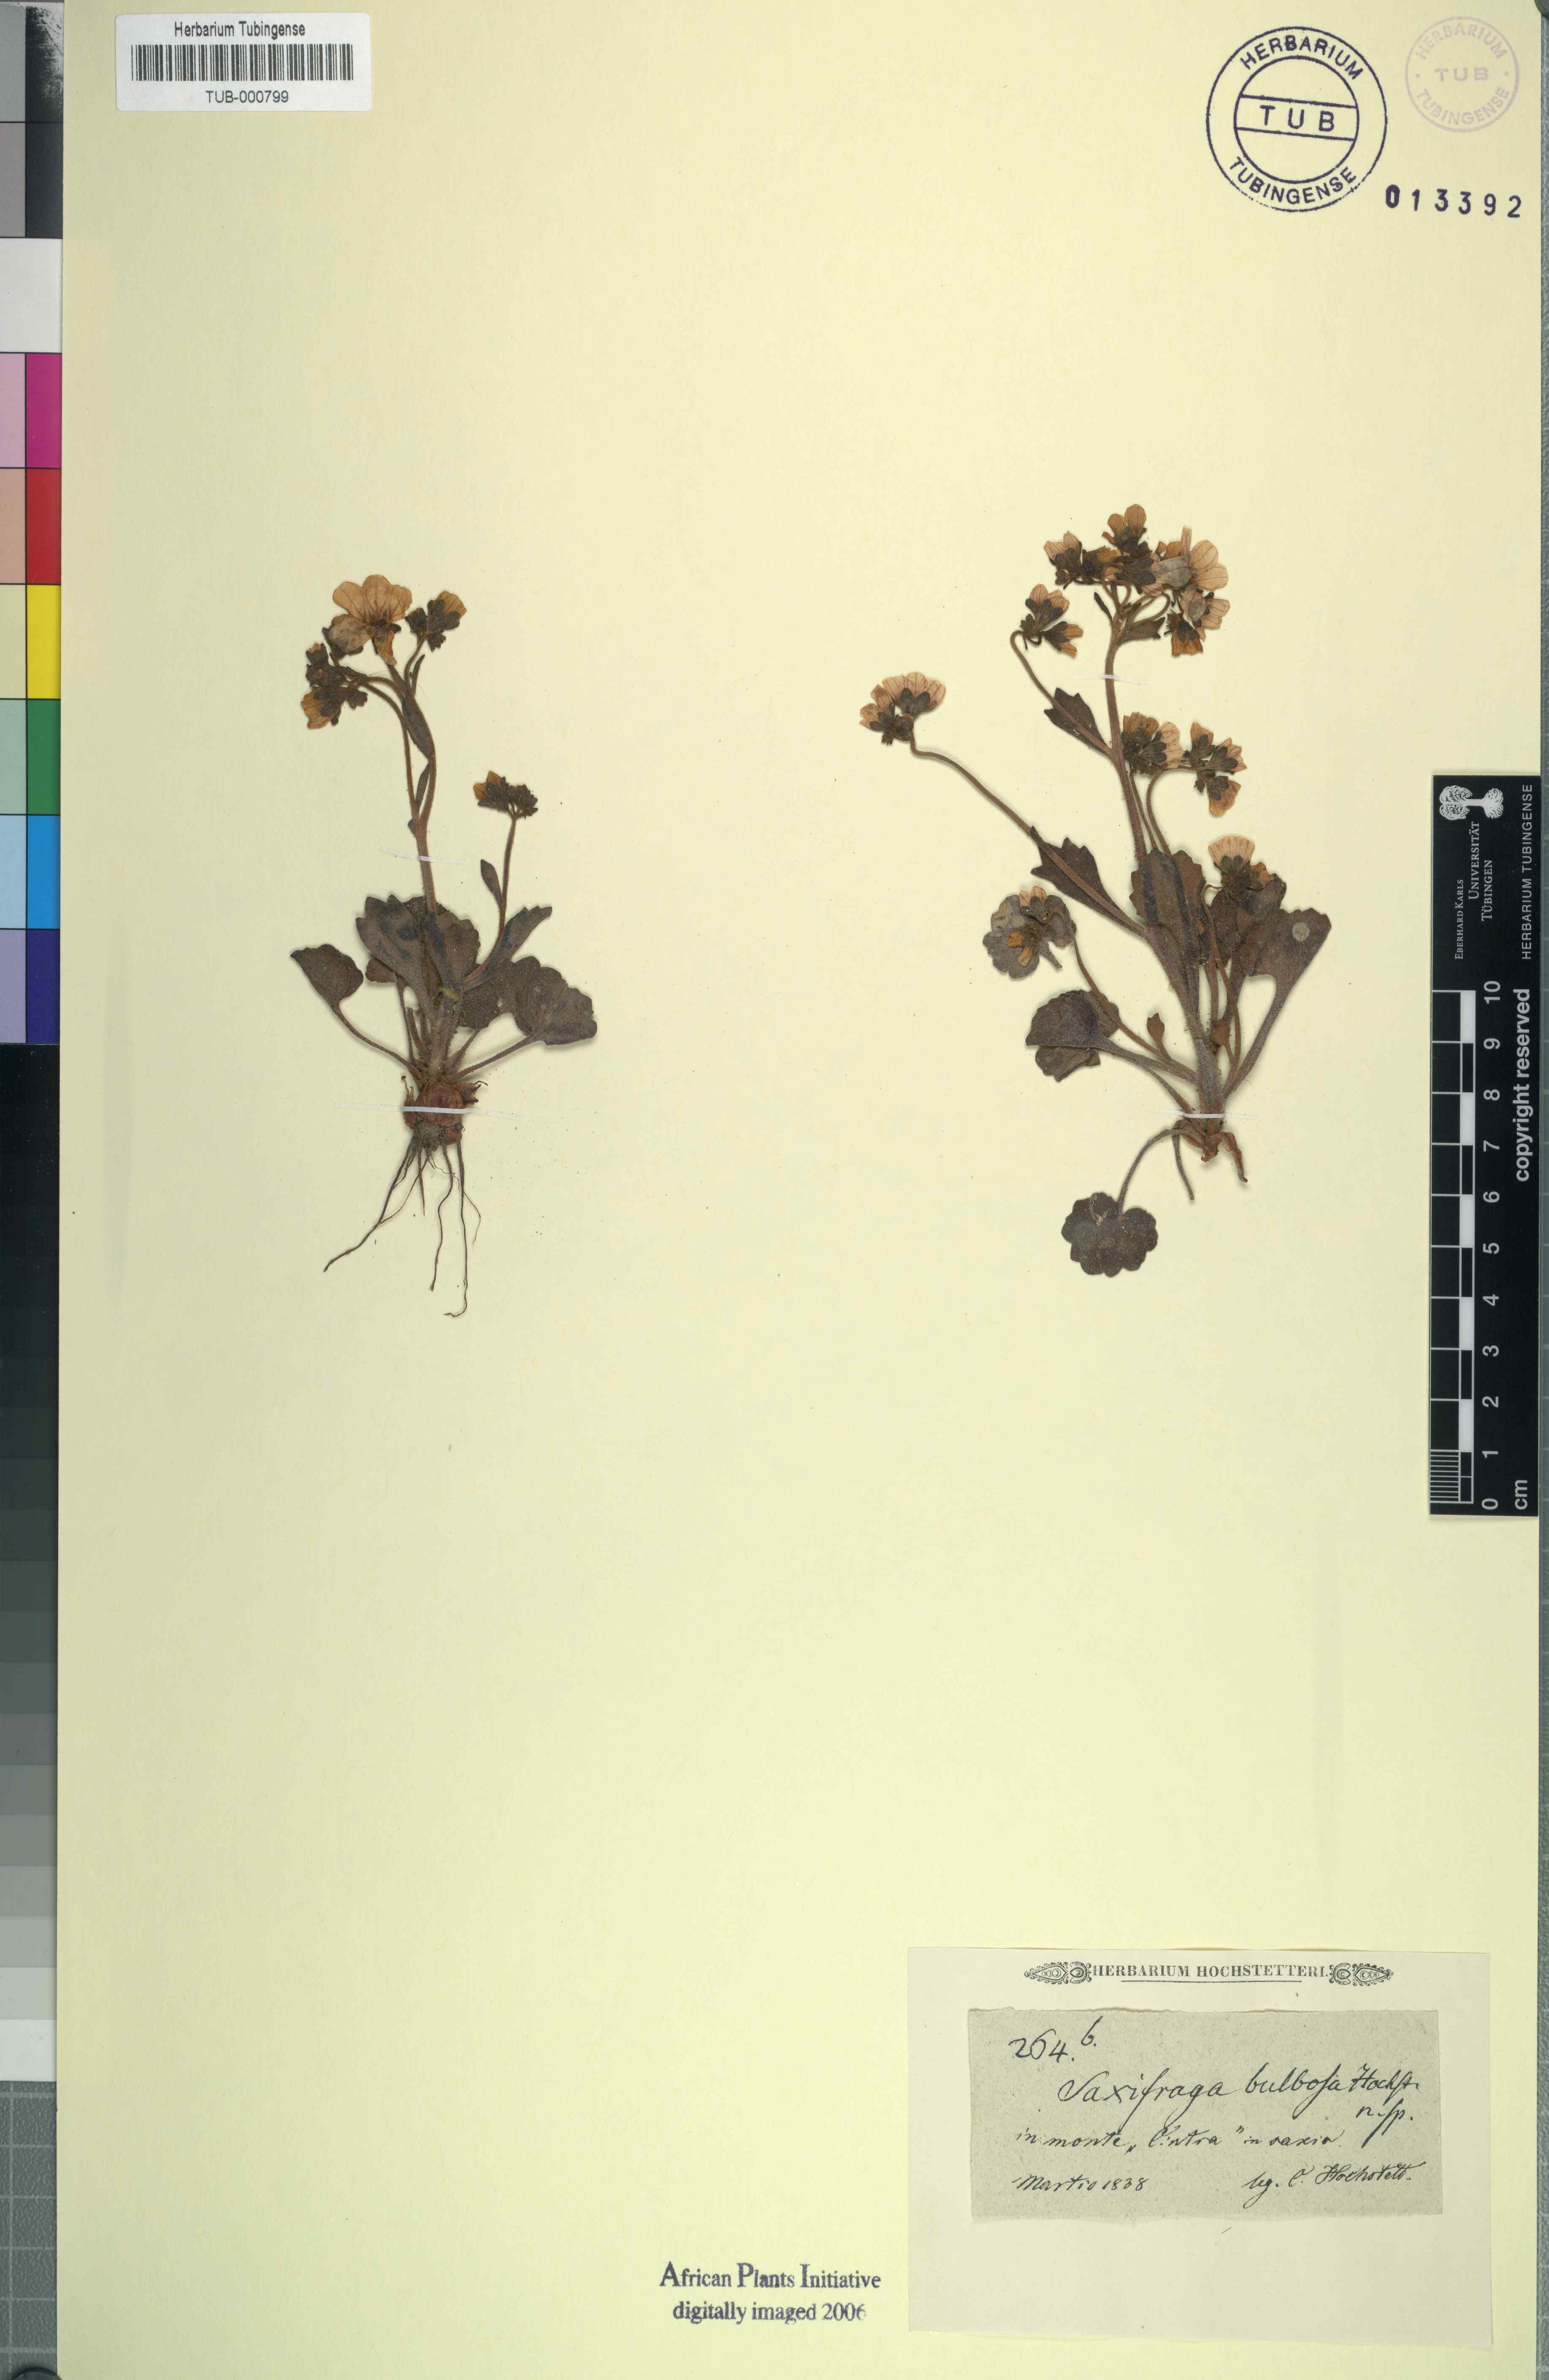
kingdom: Plantae
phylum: Tracheophyta
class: Magnoliopsida
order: Saxifragales
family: Saxifragaceae
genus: Saxifraga
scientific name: Saxifraga granulata
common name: Meadow saxifrage
